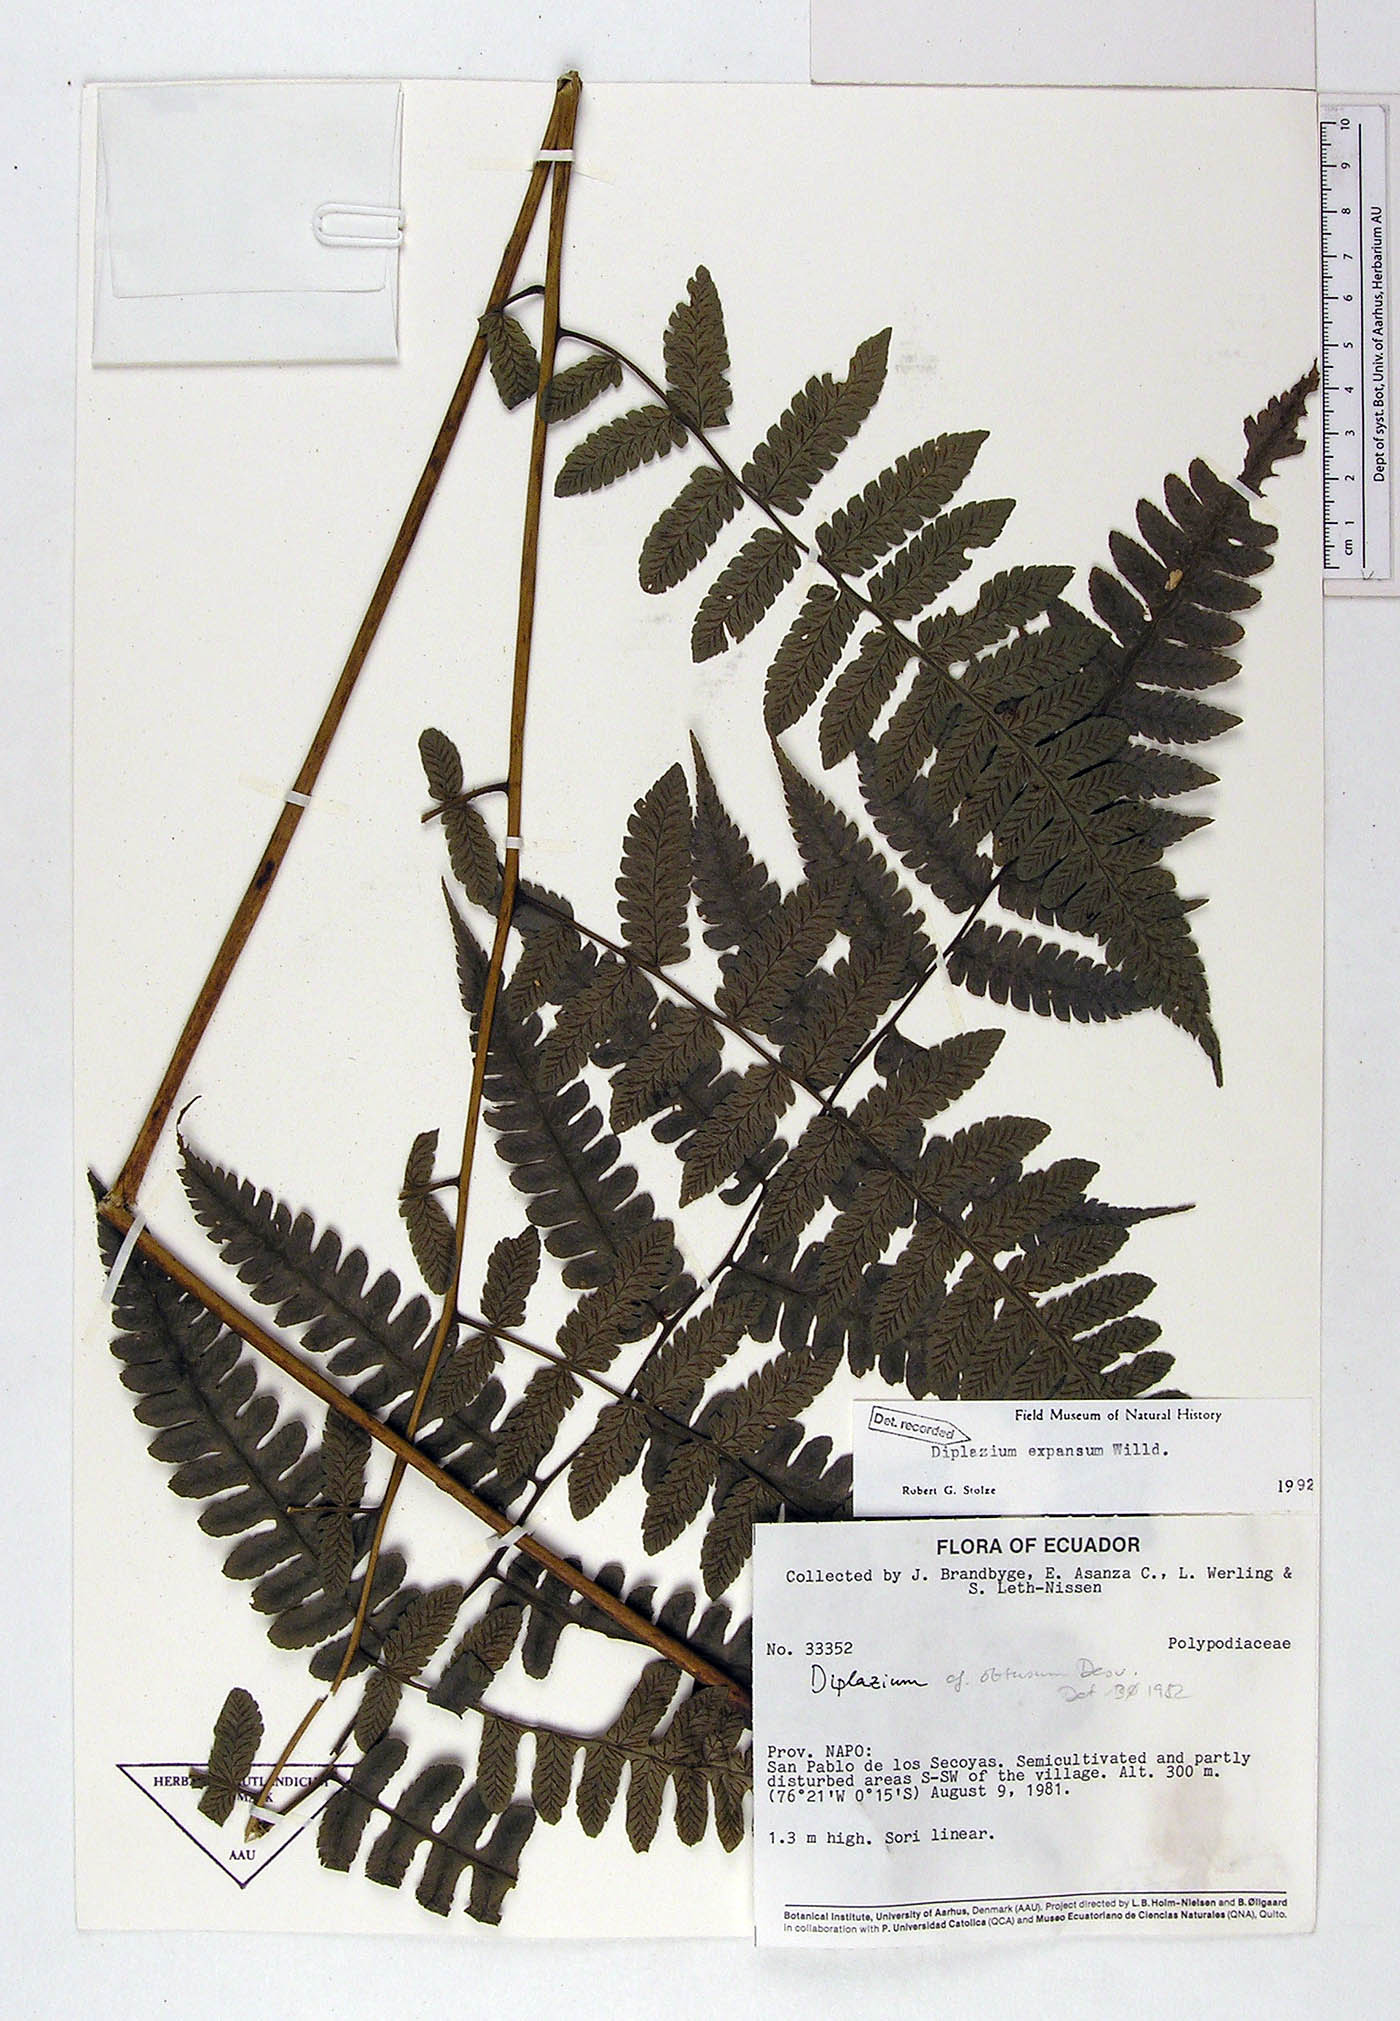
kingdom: Plantae
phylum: Tracheophyta
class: Polypodiopsida
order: Polypodiales
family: Athyriaceae
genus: Diplazium
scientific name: Diplazium expansum
